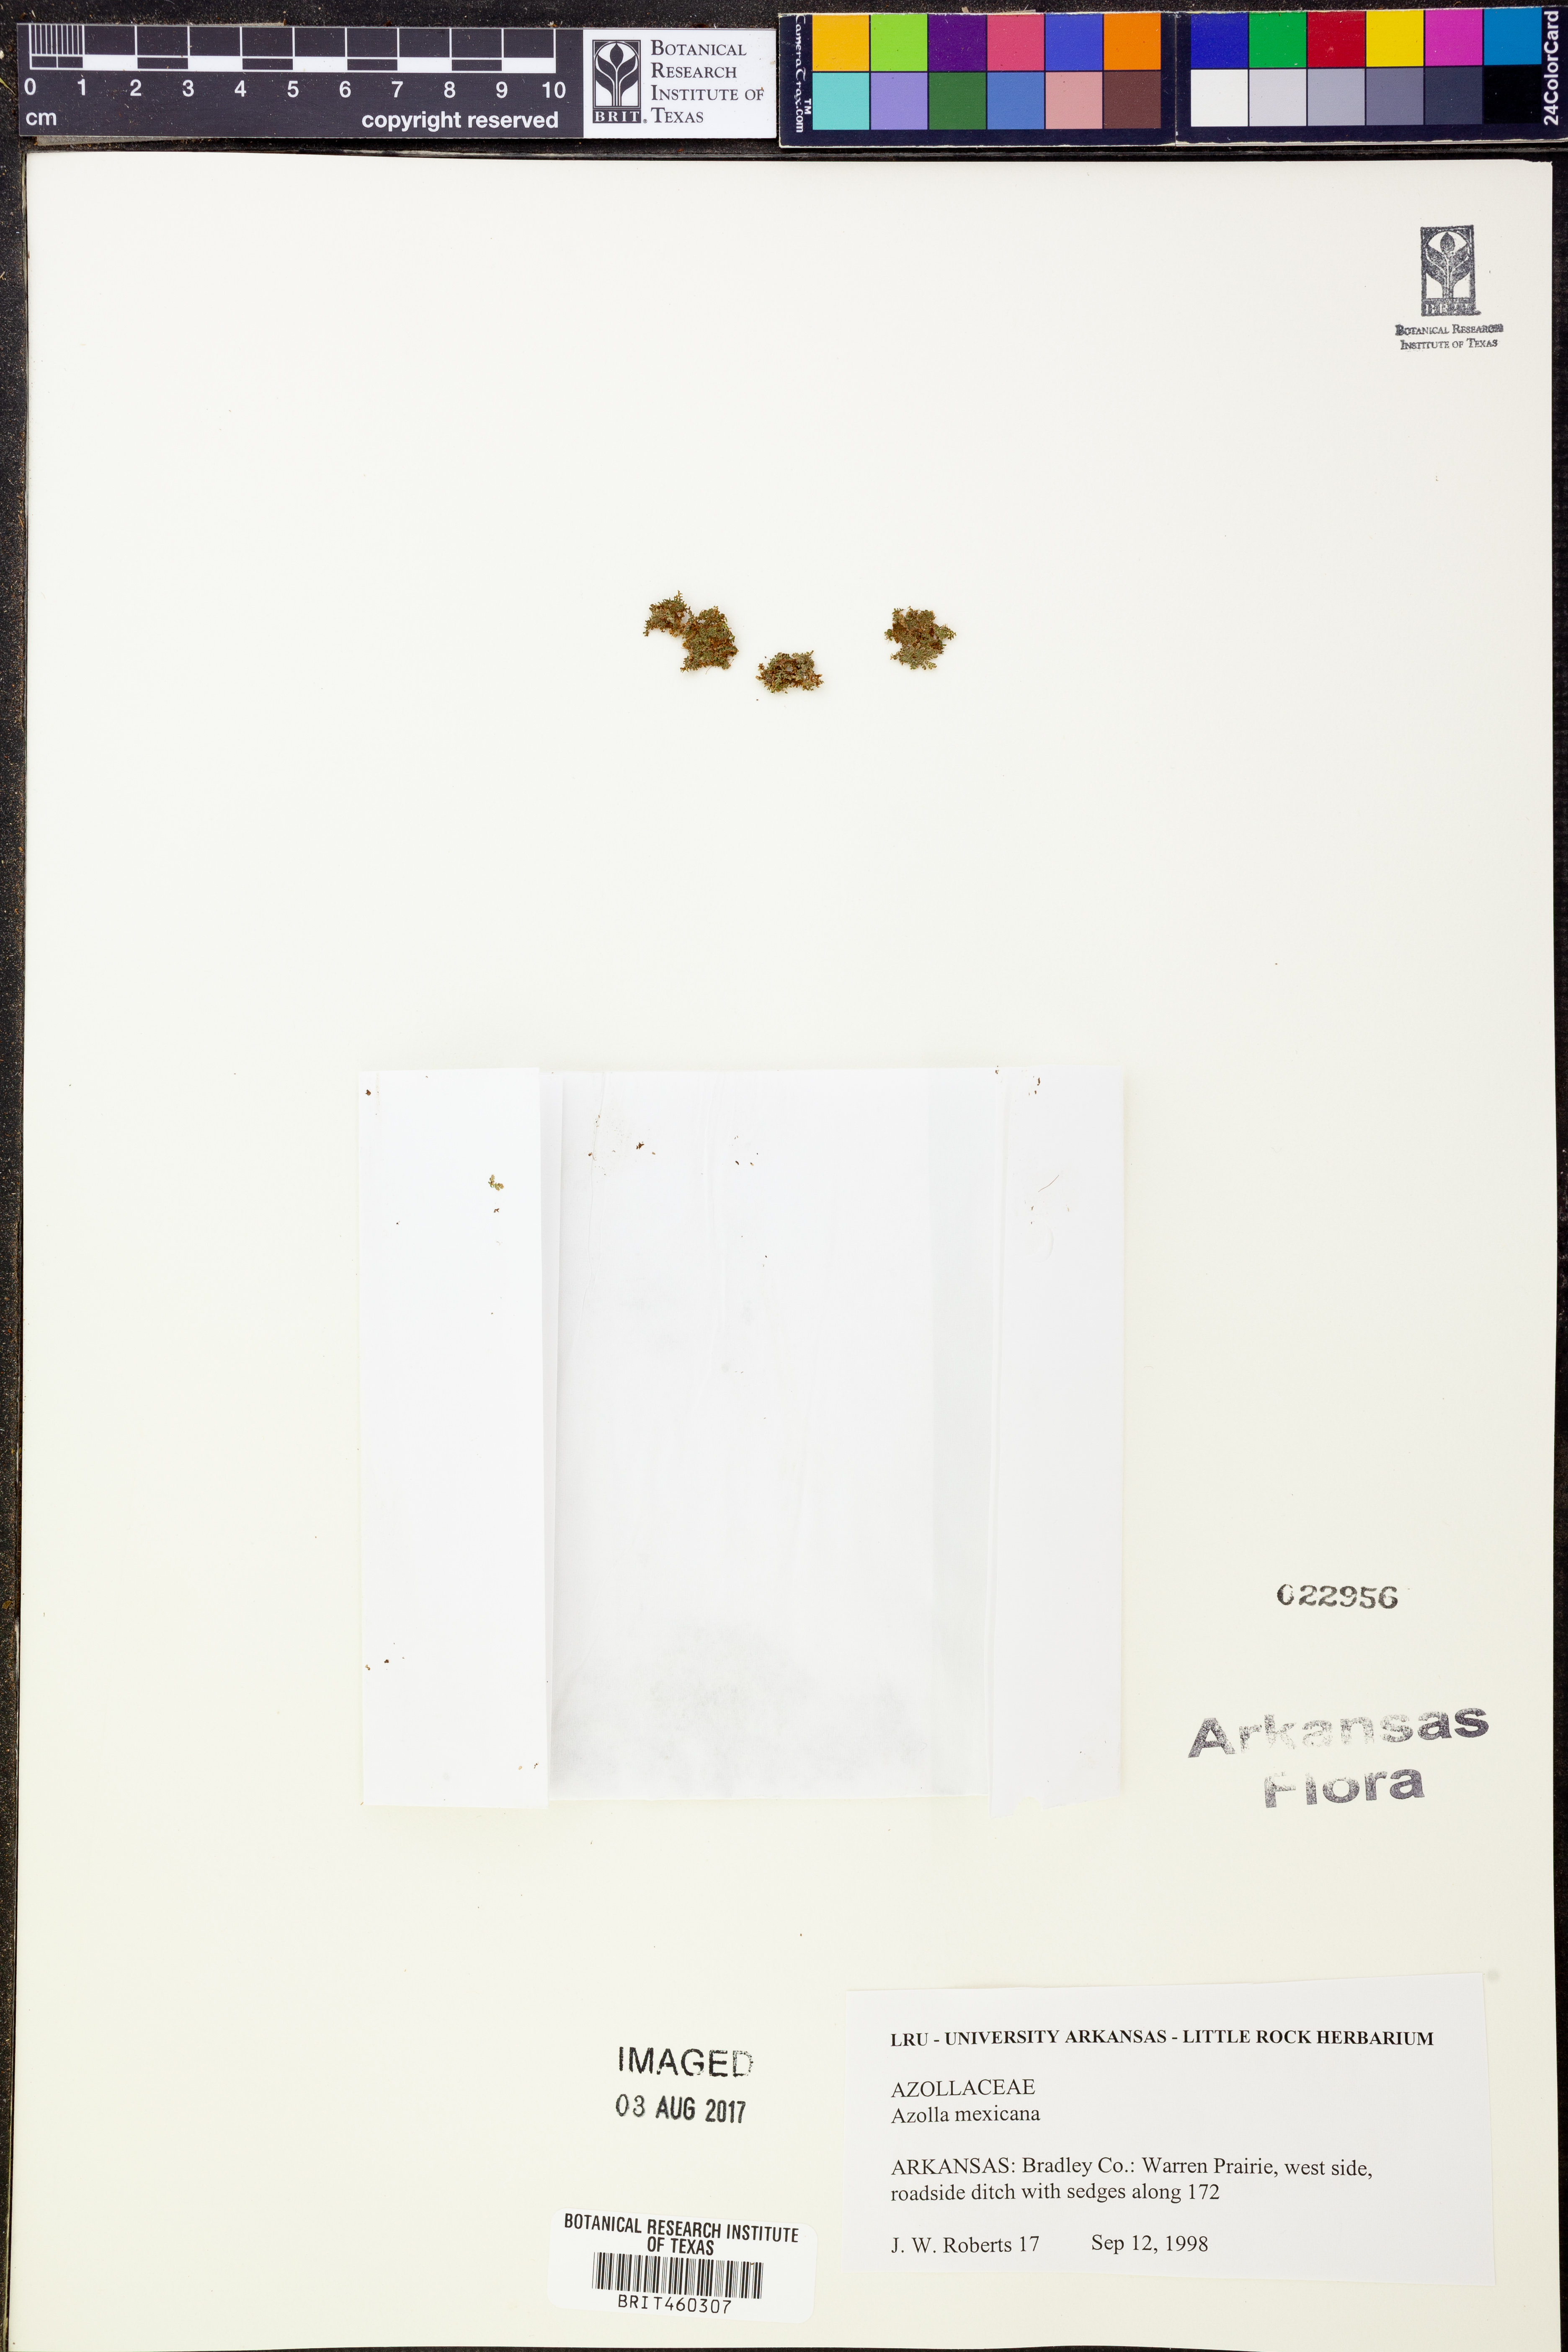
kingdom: Plantae
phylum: Tracheophyta
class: Polypodiopsida
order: Salviniales
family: Salviniaceae
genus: Azolla
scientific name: Azolla cristata
